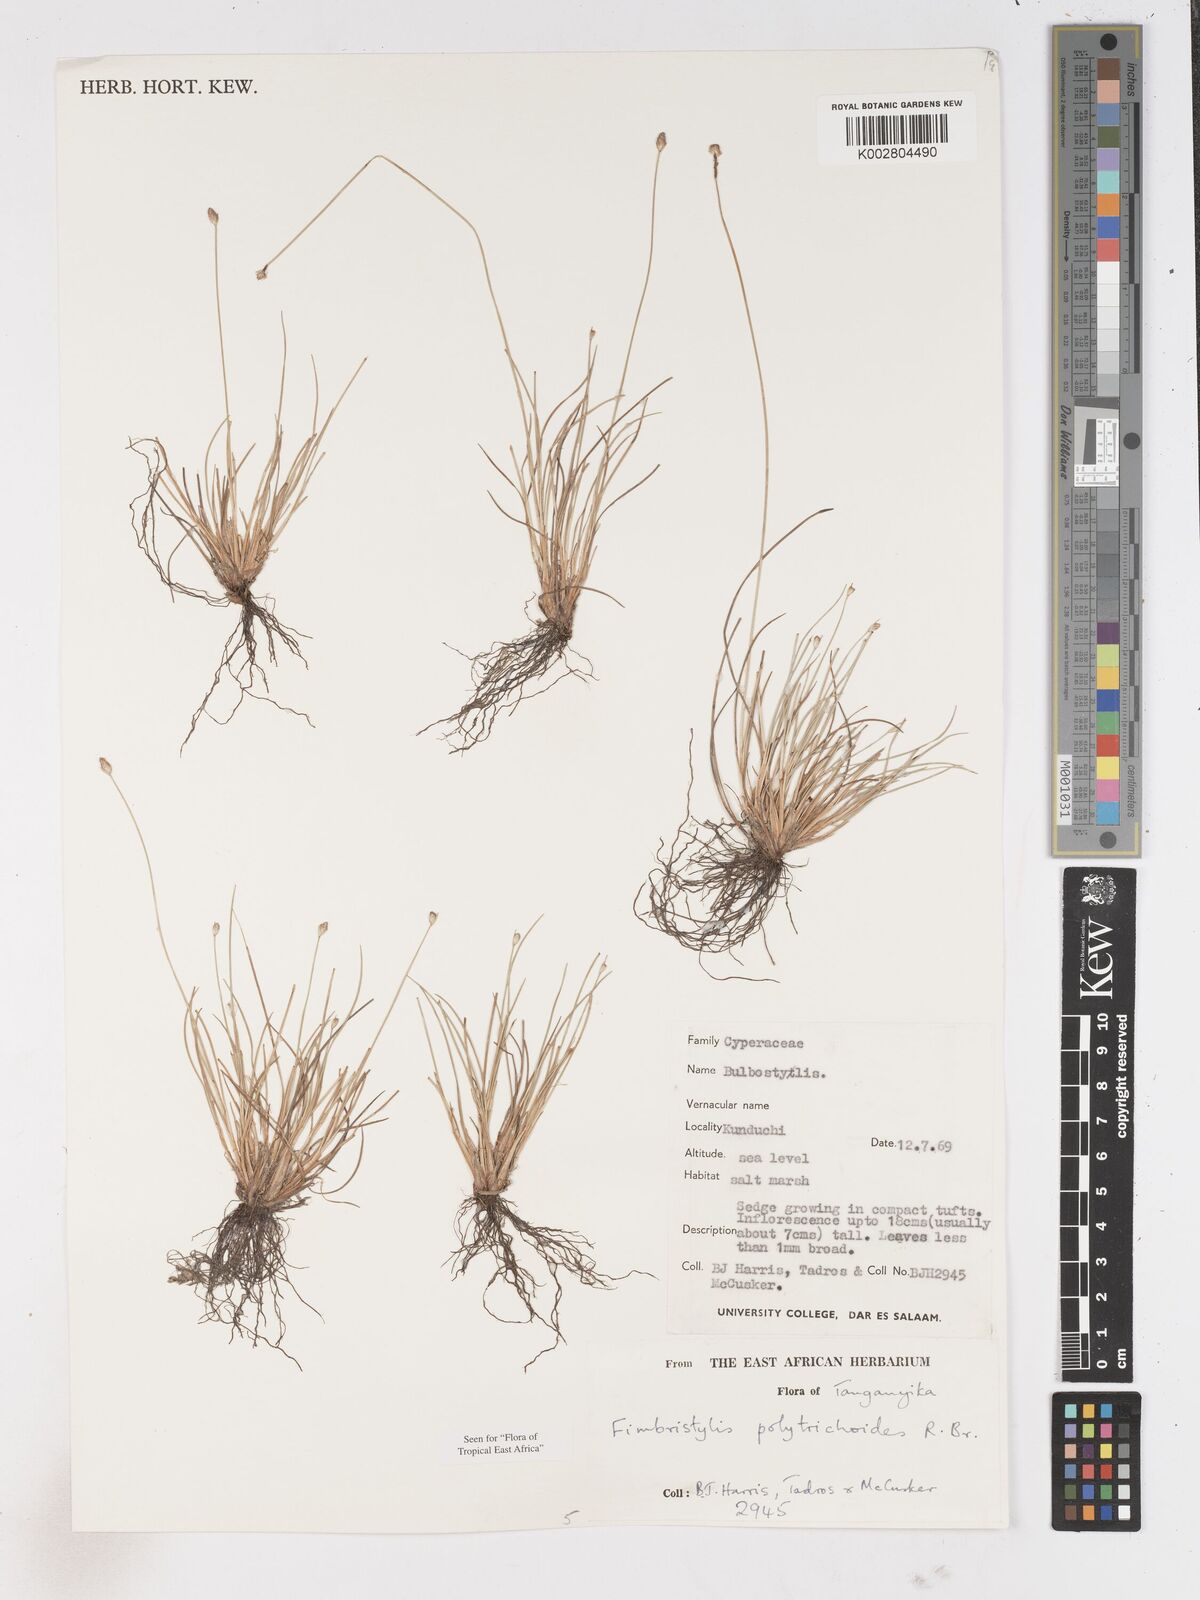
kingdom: Plantae
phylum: Tracheophyta
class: Liliopsida
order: Poales
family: Cyperaceae
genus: Fimbristylis
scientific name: Fimbristylis polytrichoides
